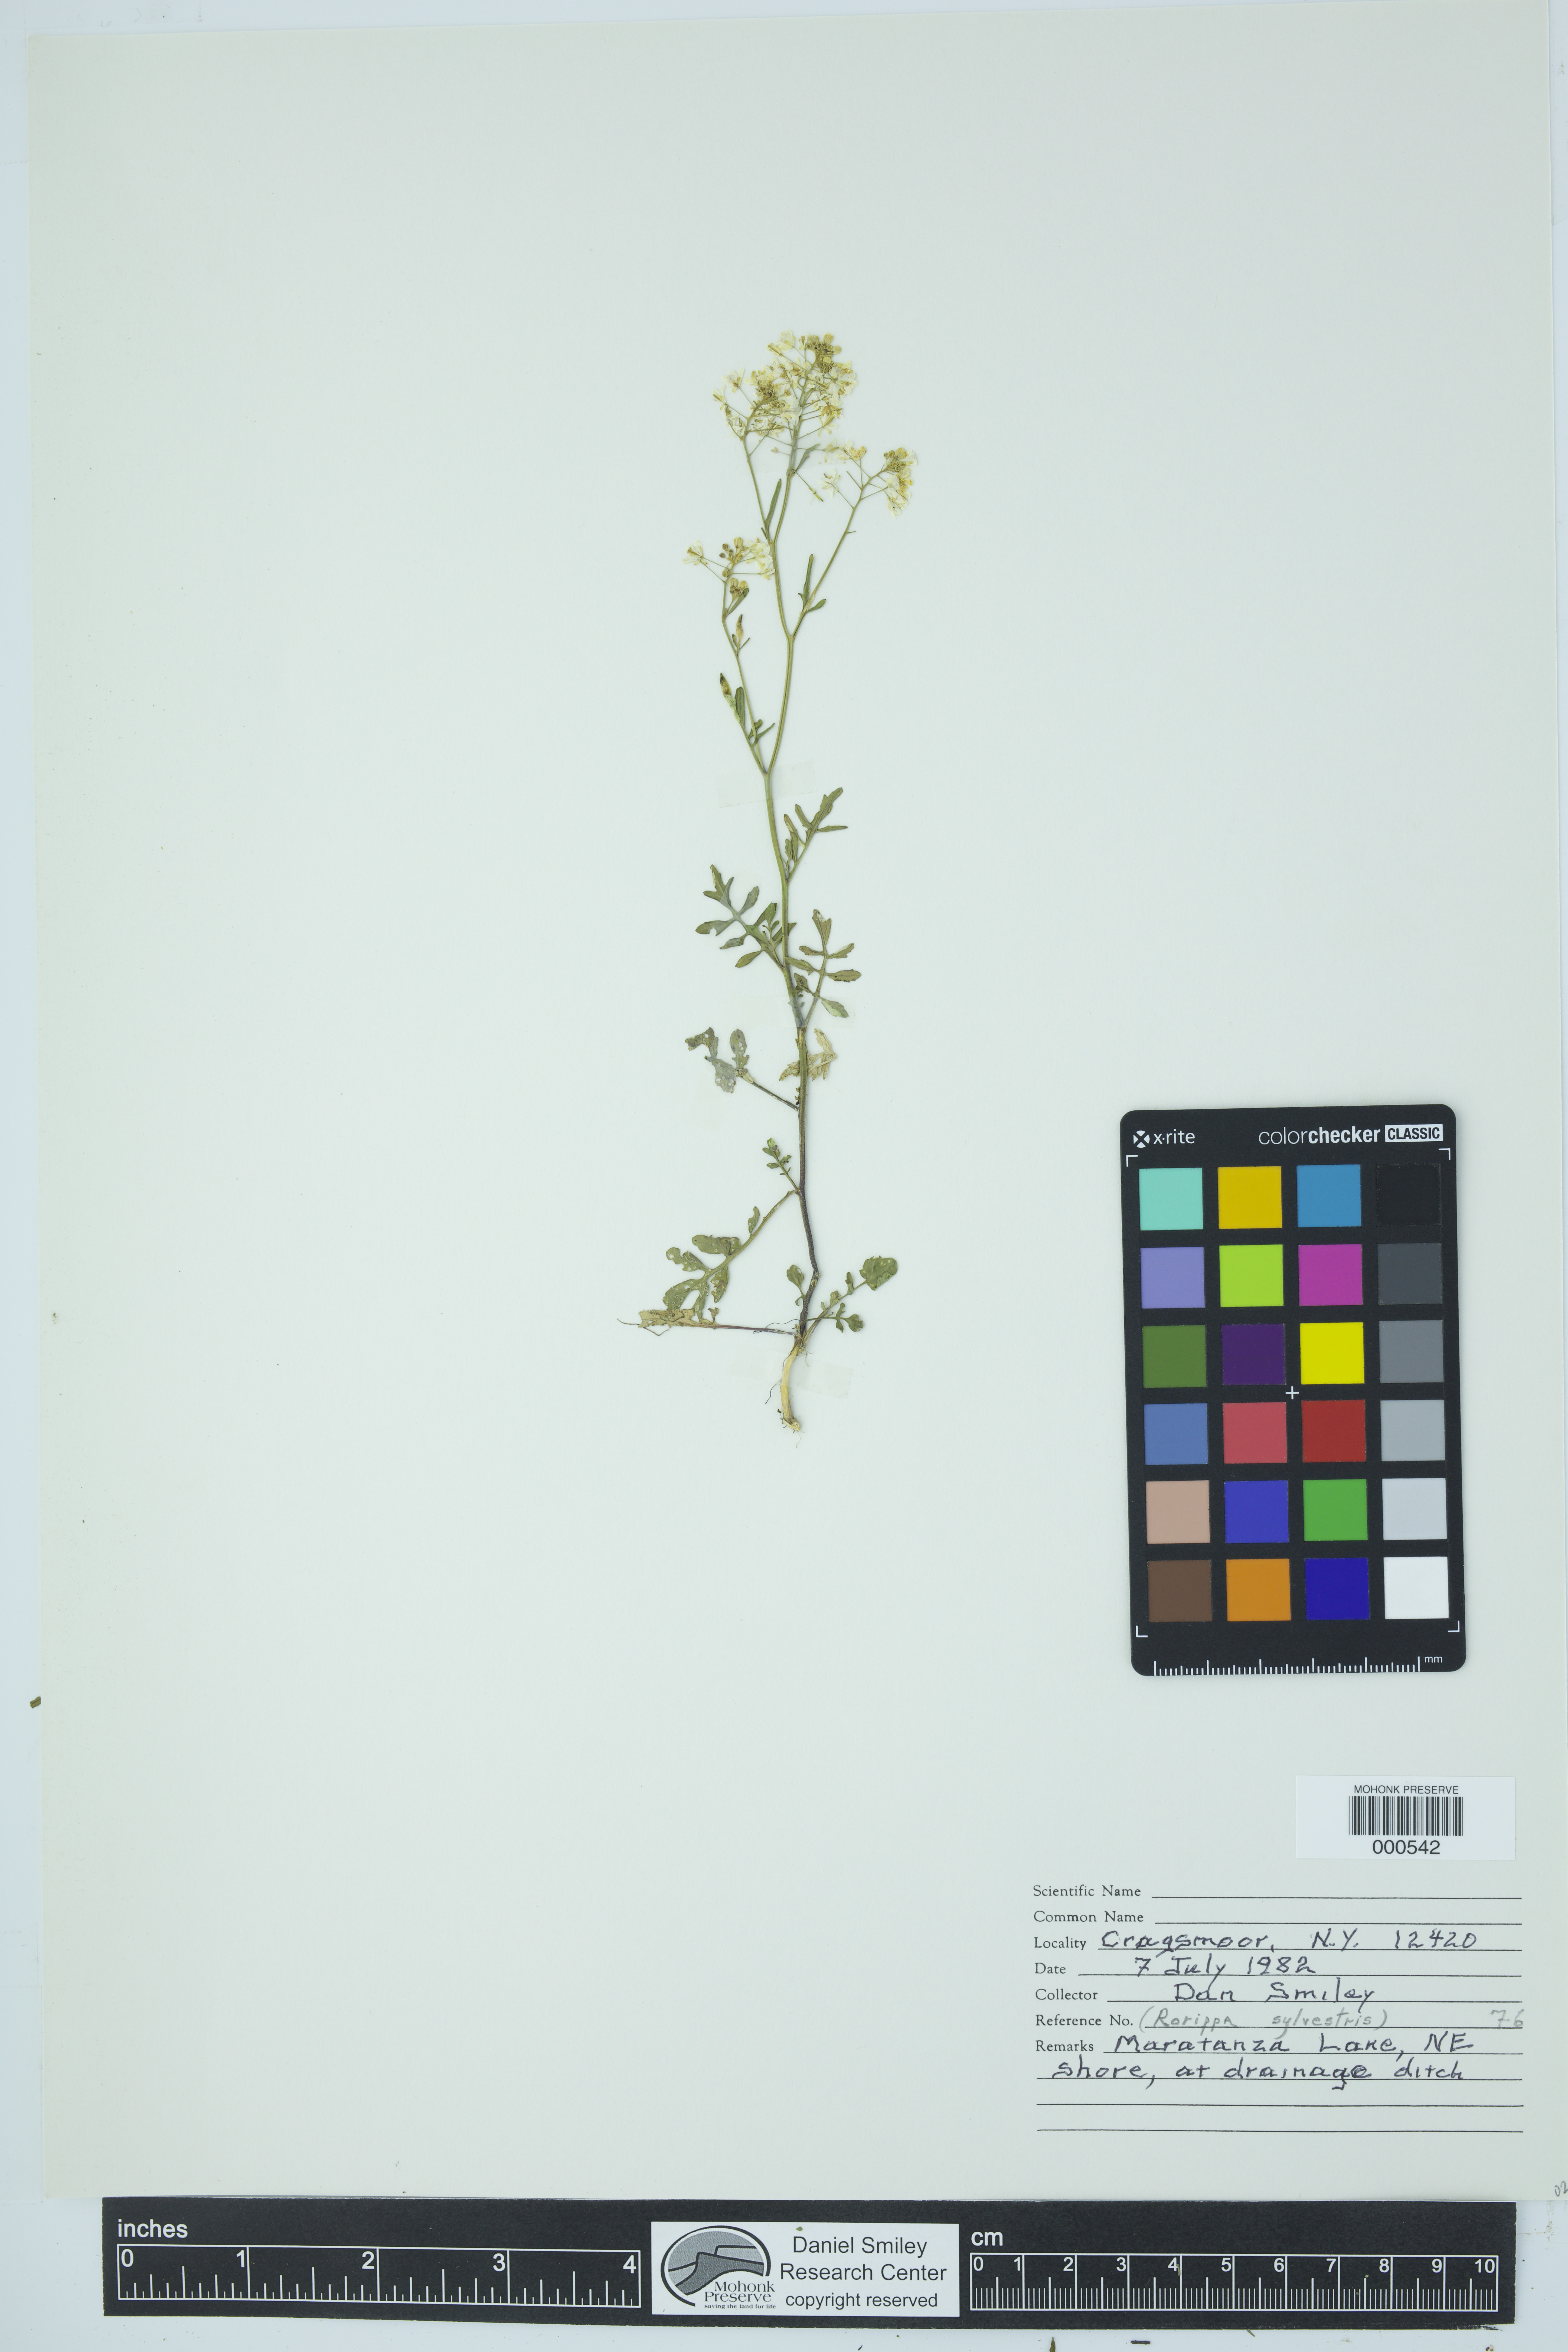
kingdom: Plantae
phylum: Tracheophyta
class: Magnoliopsida
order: Brassicales
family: Brassicaceae
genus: Rorippa
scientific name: Rorippa sylvestris
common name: Creeping yellowcress
